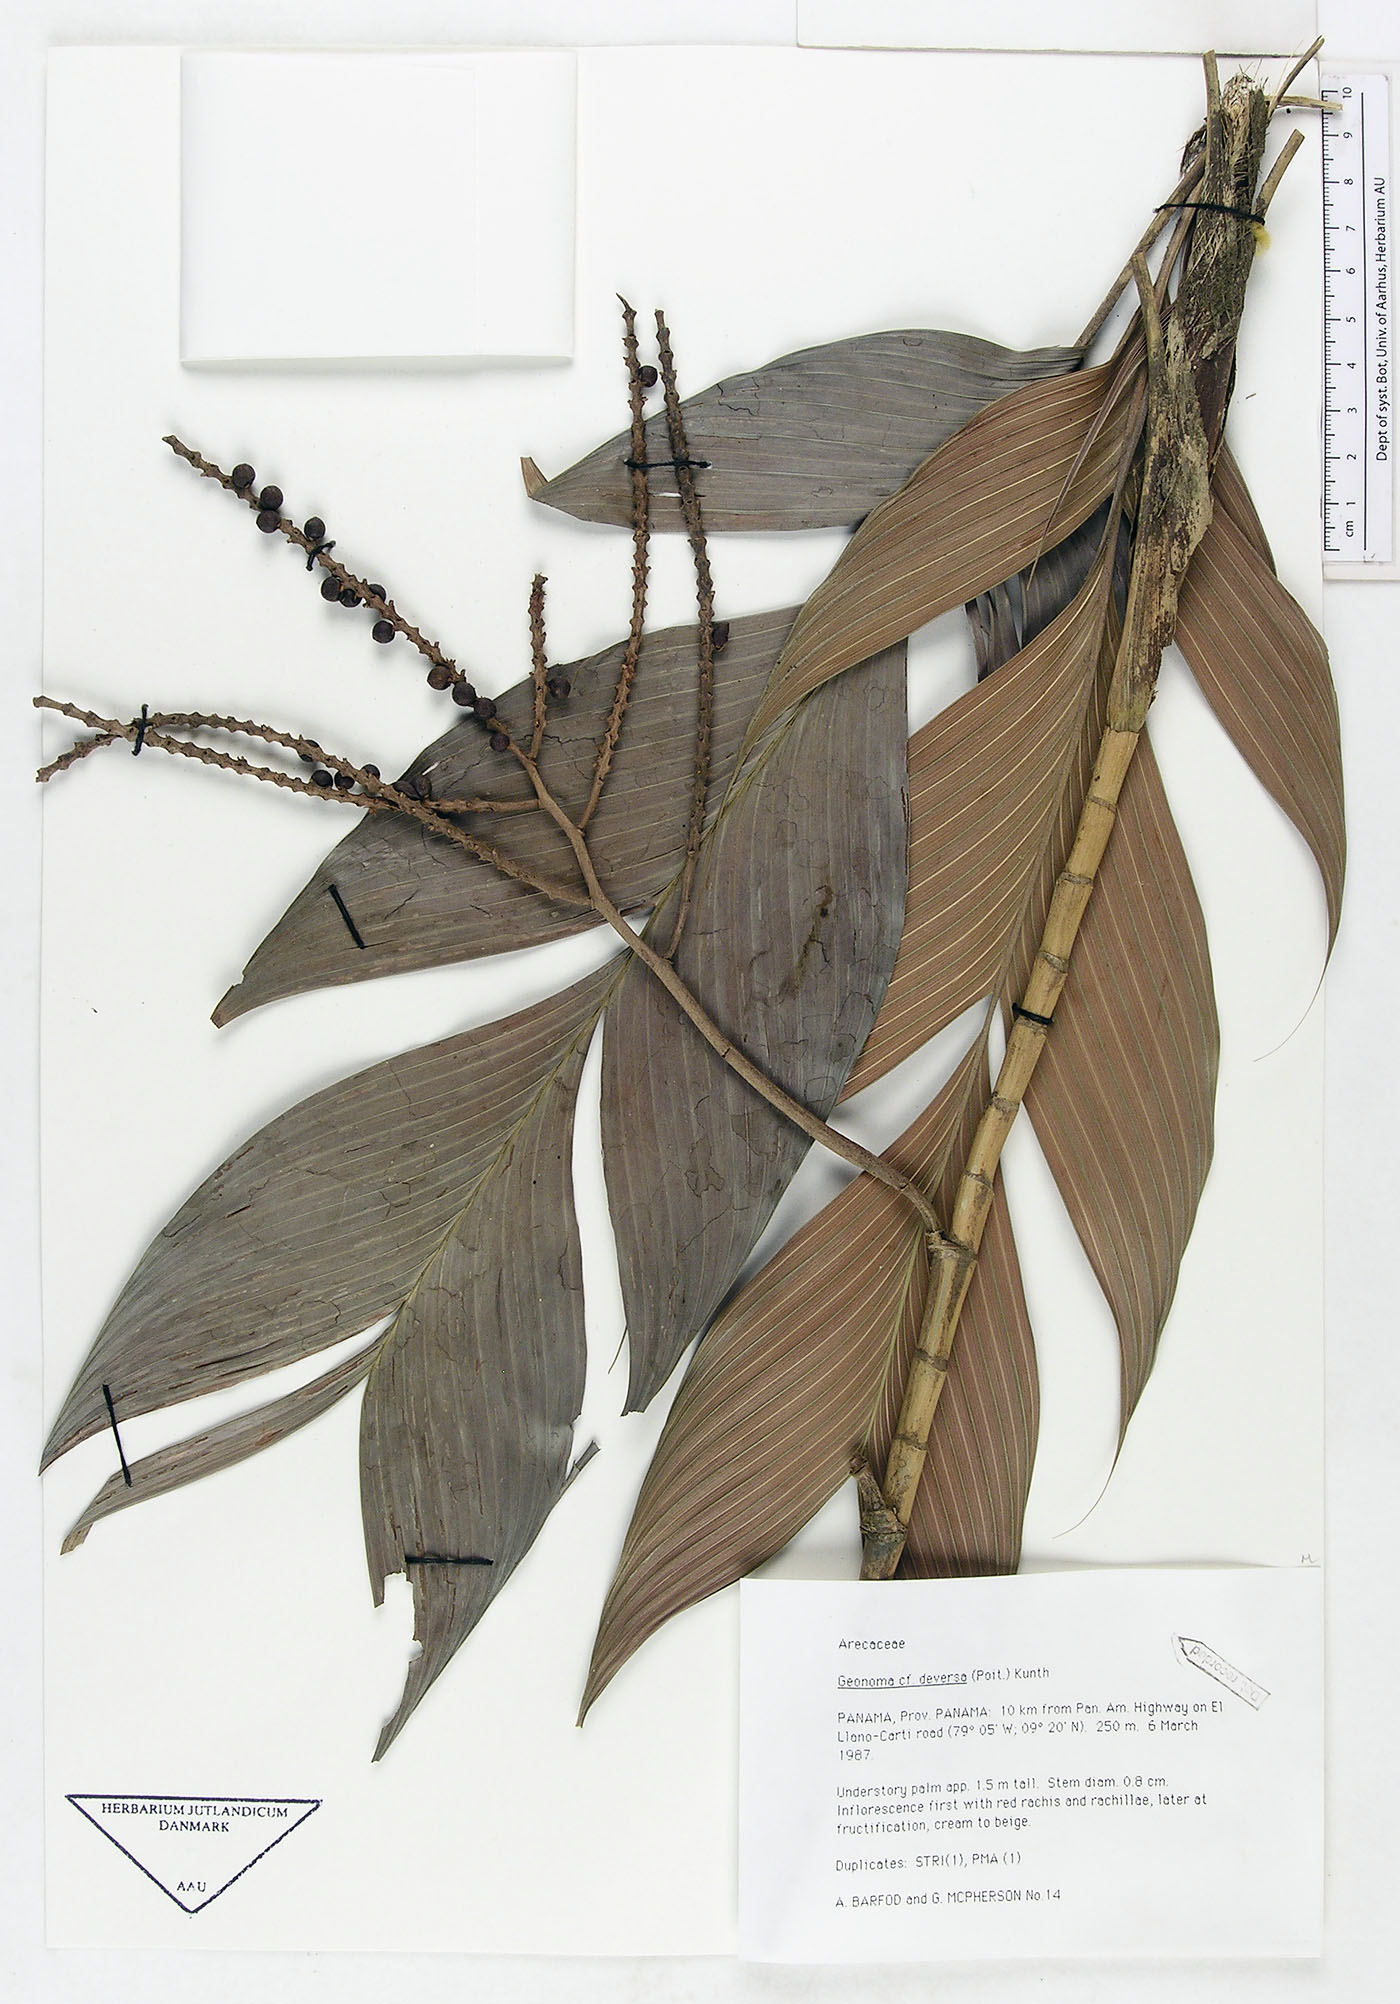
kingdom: Plantae
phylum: Tracheophyta
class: Liliopsida
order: Arecales
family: Arecaceae
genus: Geonoma
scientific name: Geonoma deversa
